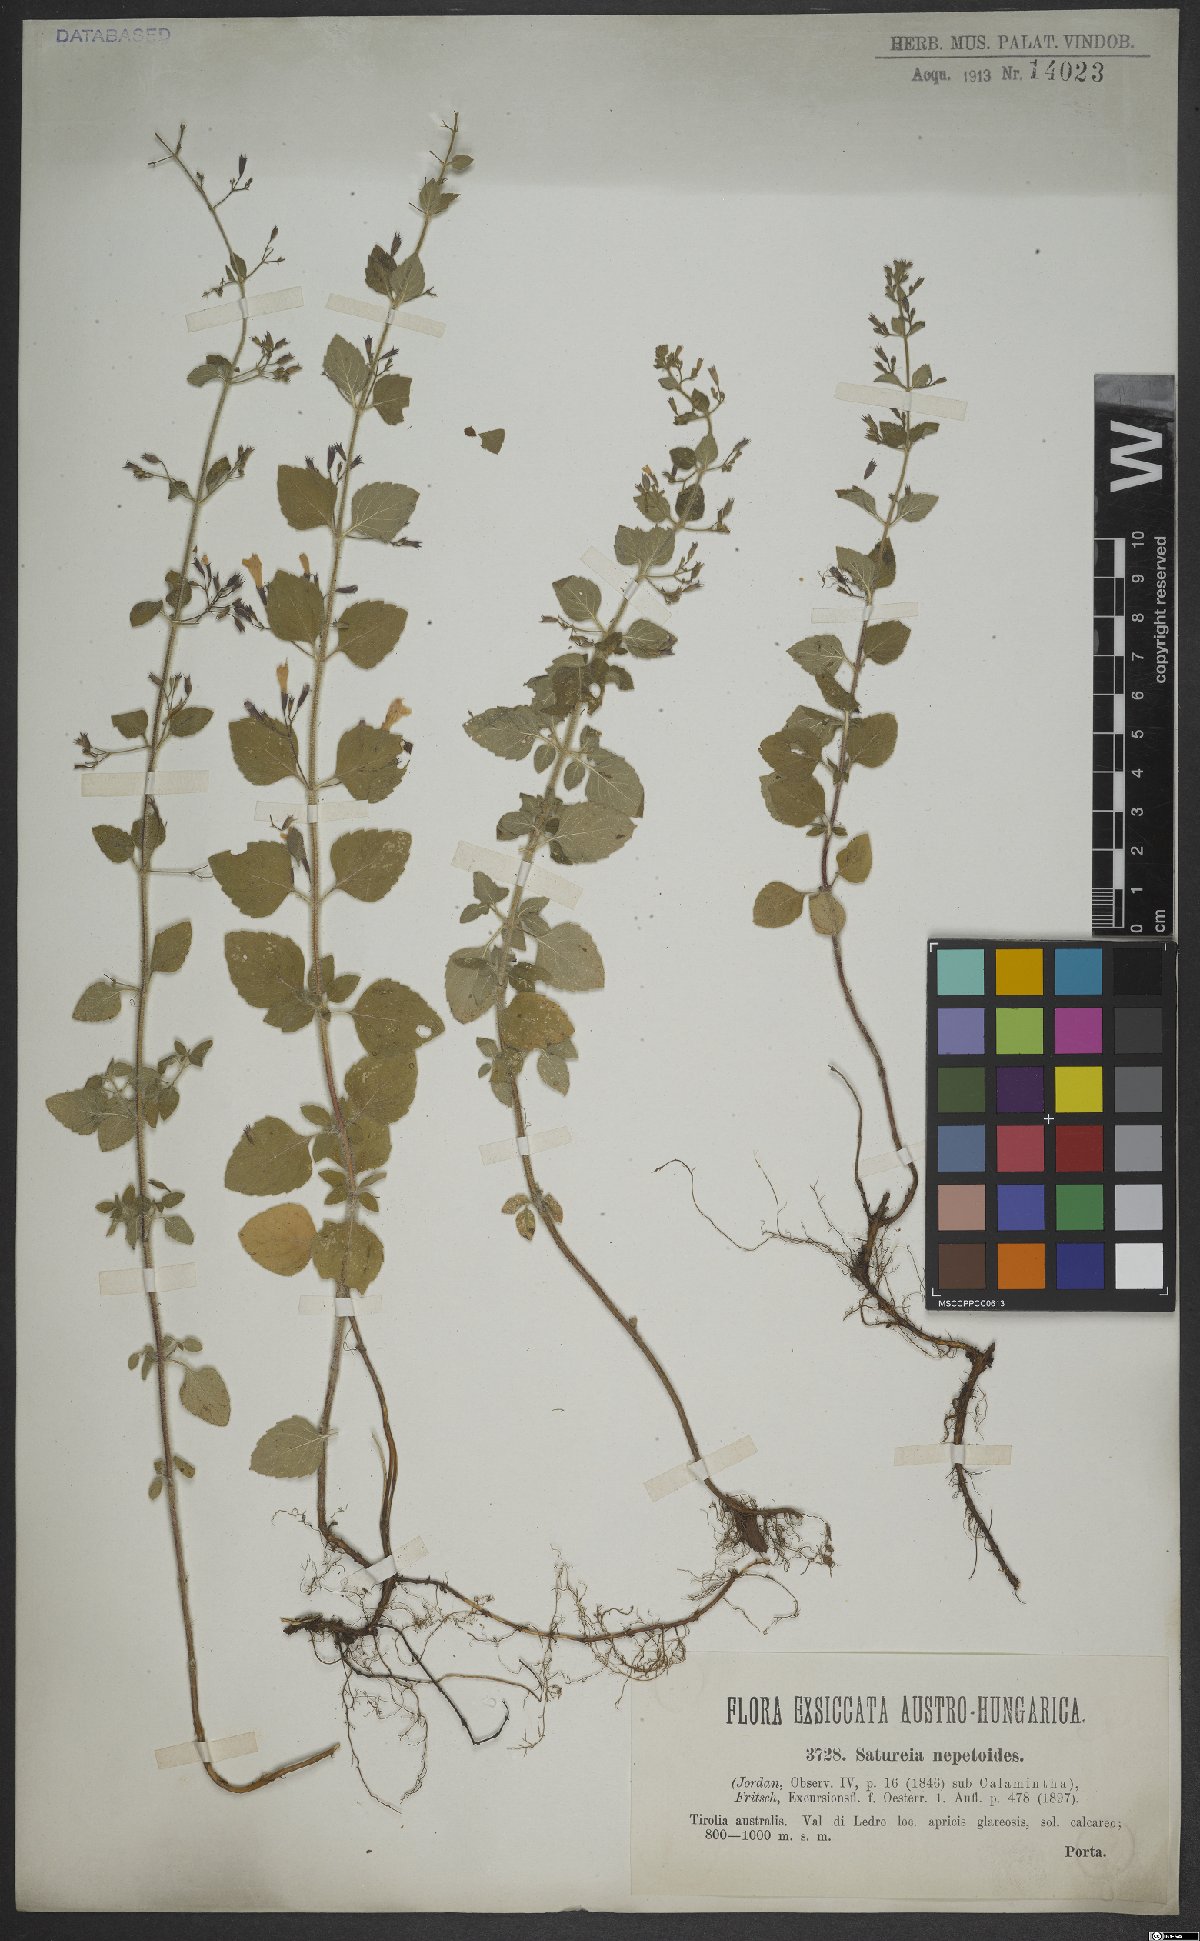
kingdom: Plantae
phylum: Tracheophyta
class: Magnoliopsida
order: Lamiales
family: Lamiaceae
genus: Clinopodium
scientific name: Clinopodium nepeta
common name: Lesser calamint
